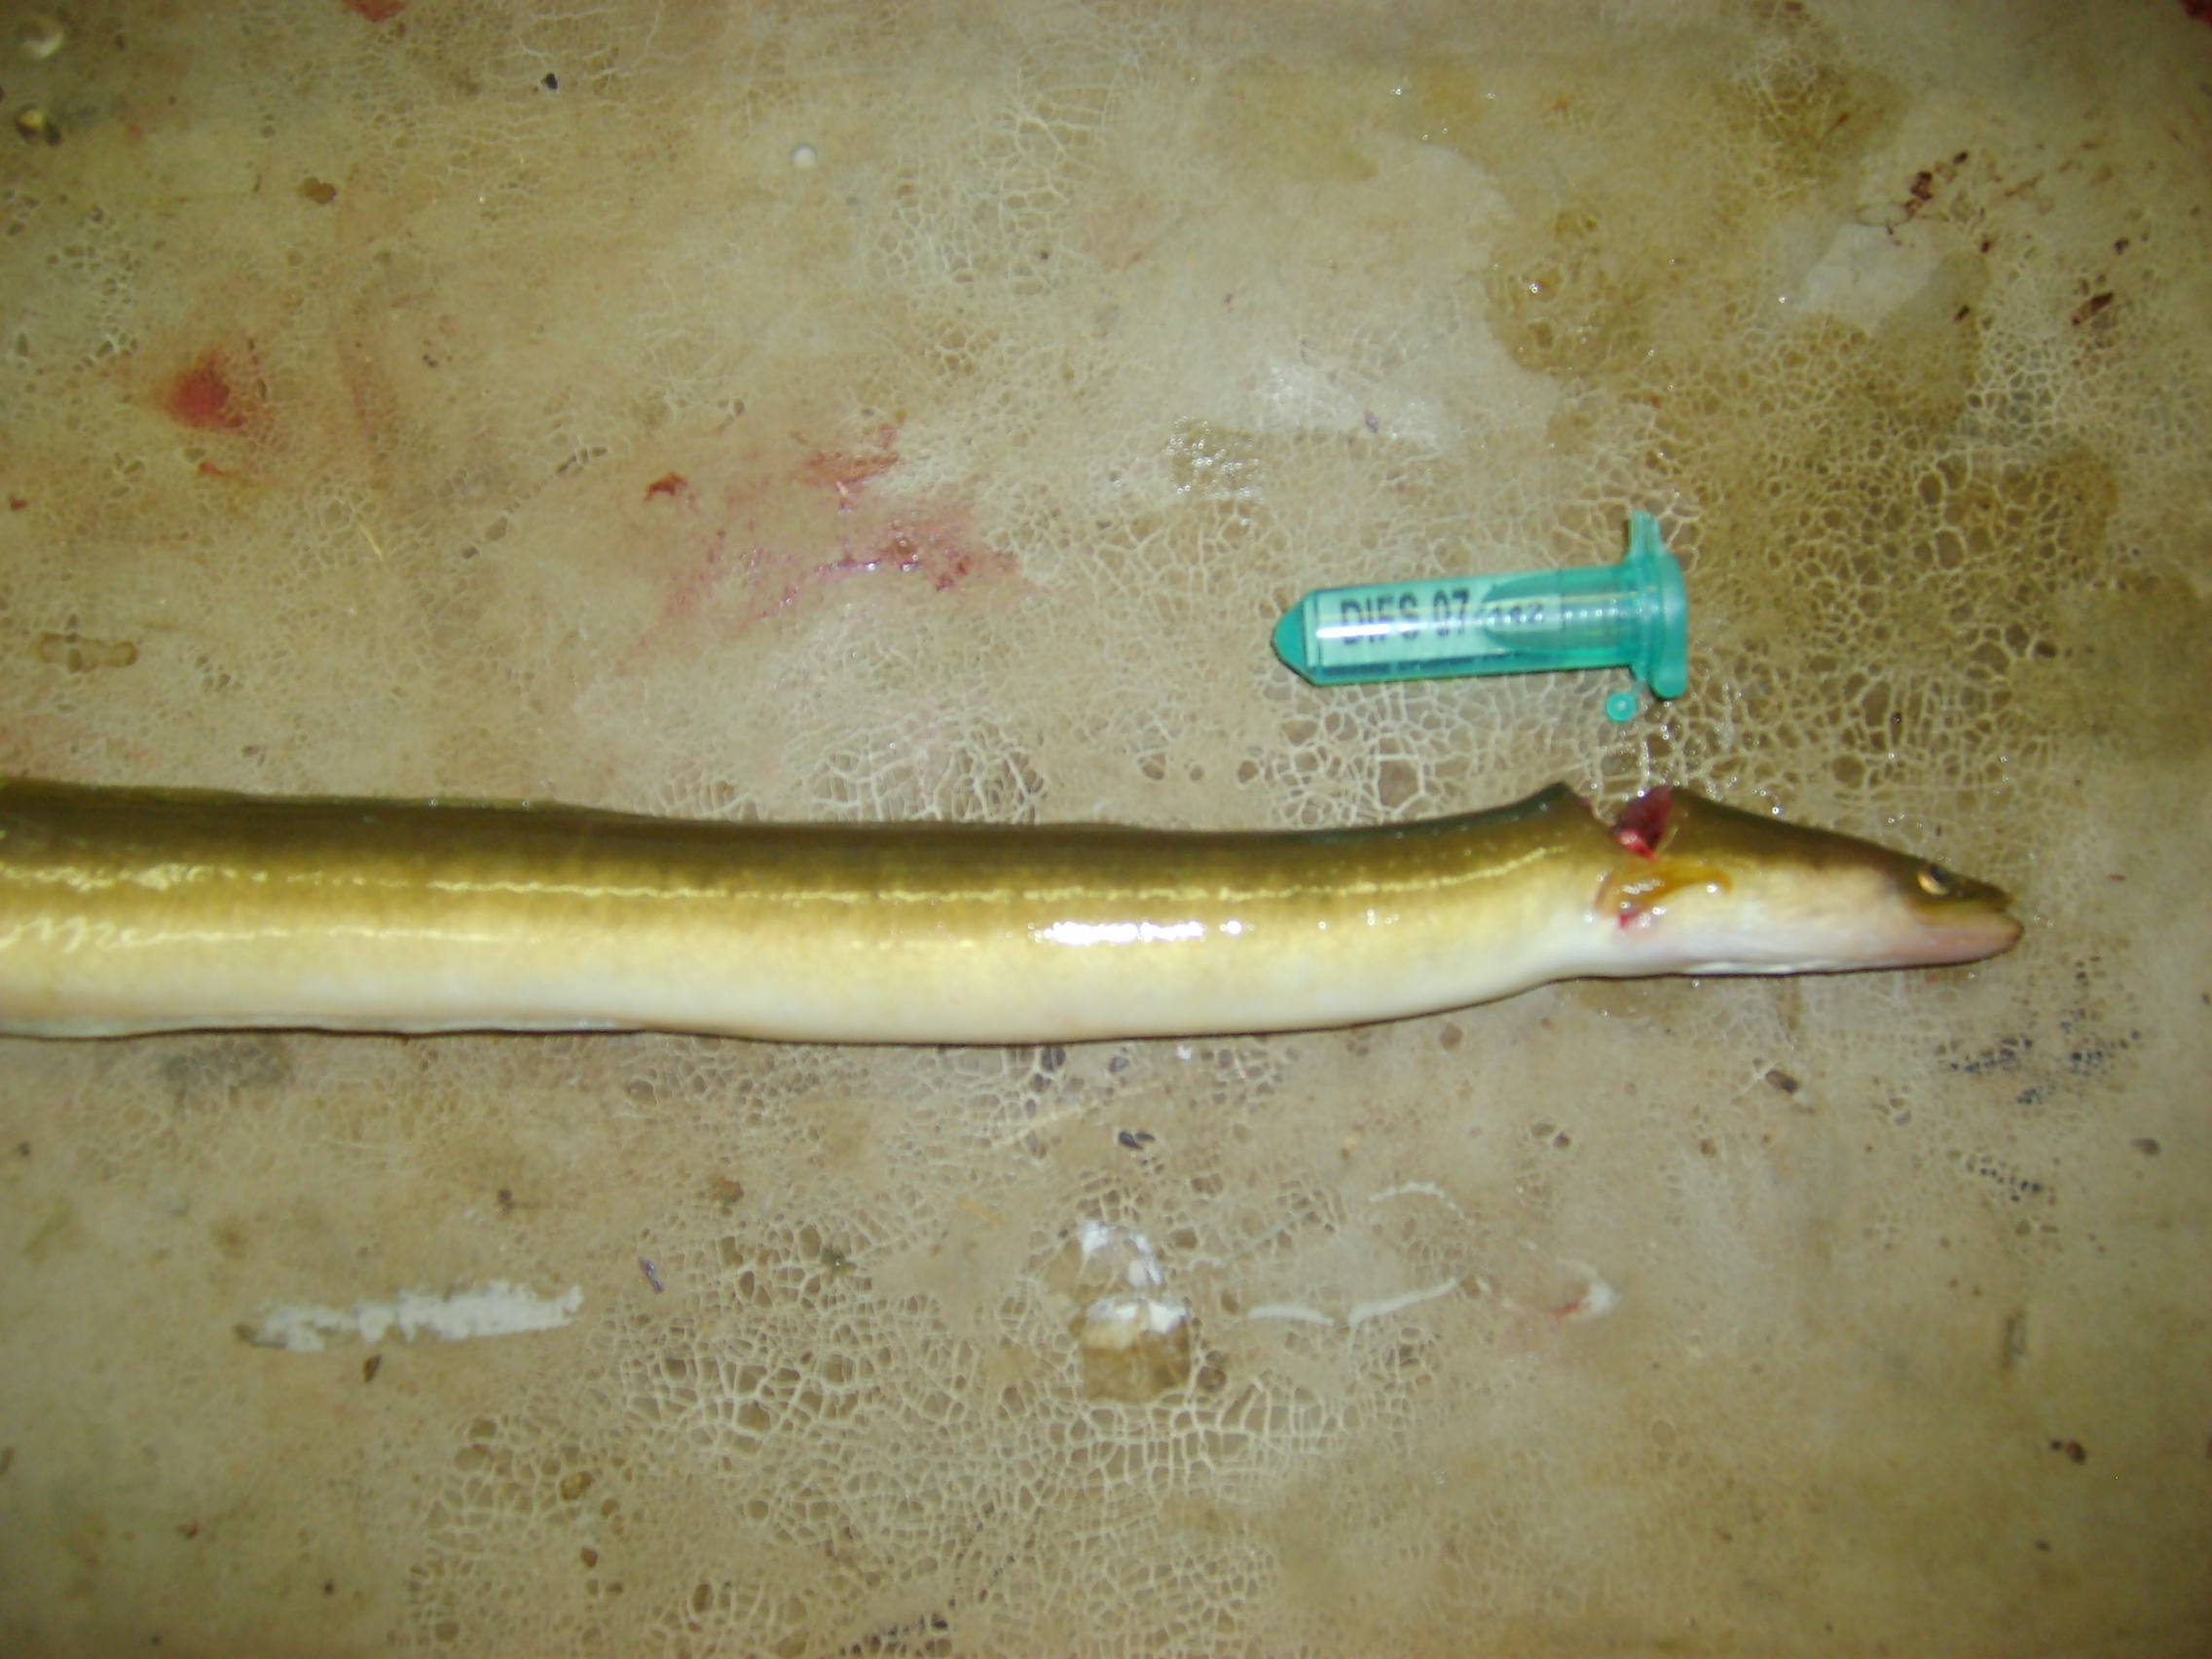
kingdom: Animalia
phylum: Chordata
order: Anguilliformes
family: Anguillidae
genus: Anguilla
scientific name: Anguilla mossambica
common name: African longfin eel
